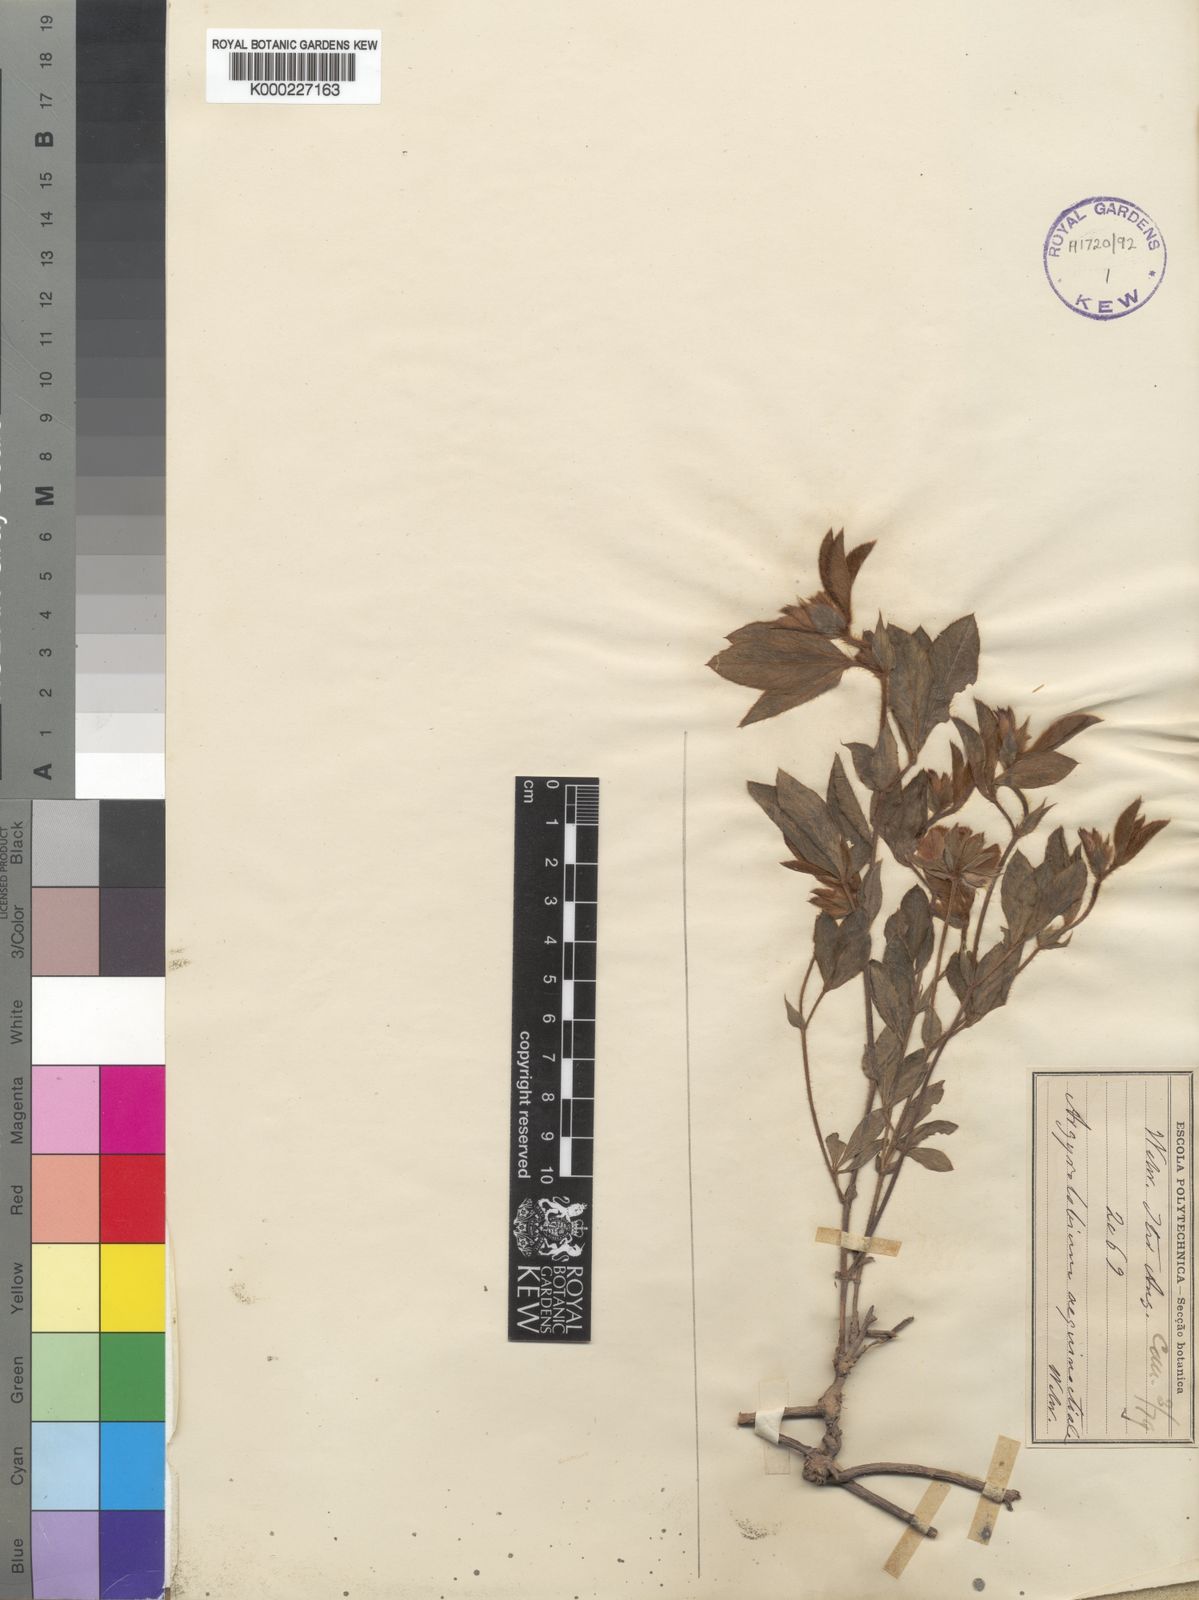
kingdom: Plantae
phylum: Tracheophyta
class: Magnoliopsida
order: Fabales
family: Fabaceae
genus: Argyrolobium
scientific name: Argyrolobium aequinoctiale
